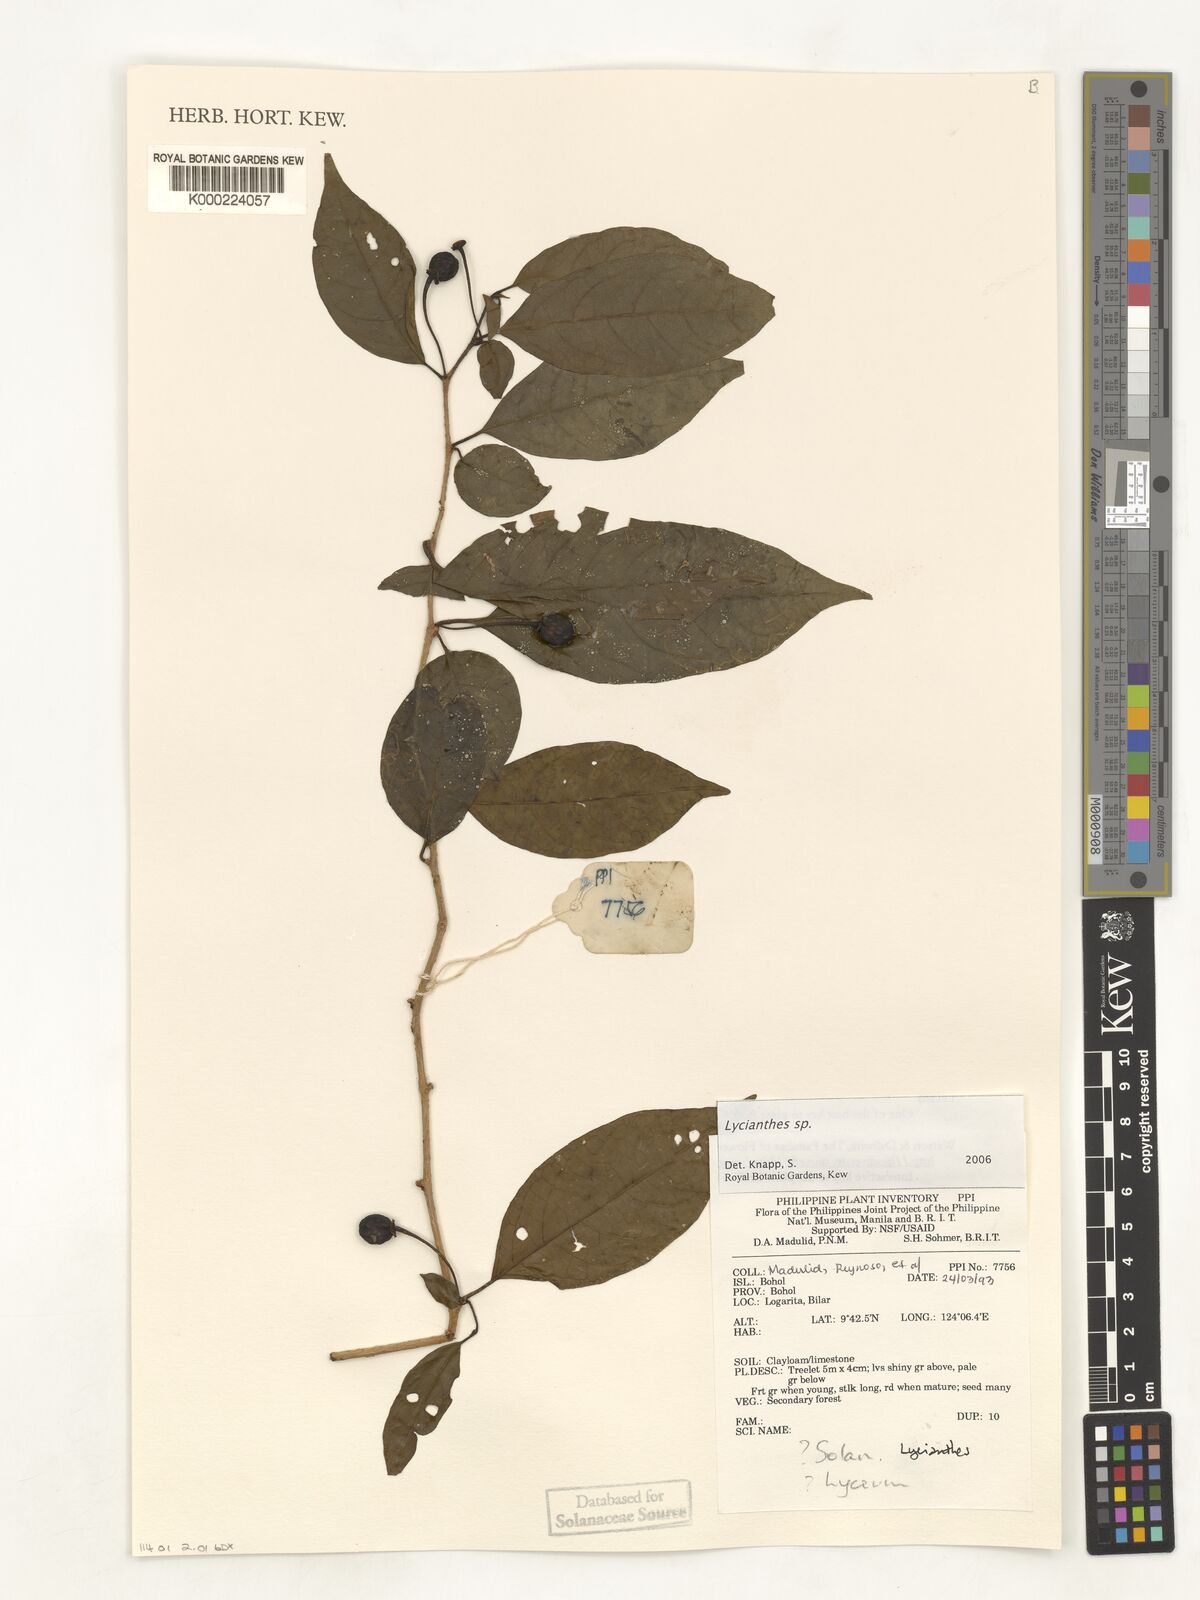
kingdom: Plantae
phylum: Tracheophyta
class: Magnoliopsida
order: Solanales
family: Solanaceae
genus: Lycianthes
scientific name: Lycianthes
